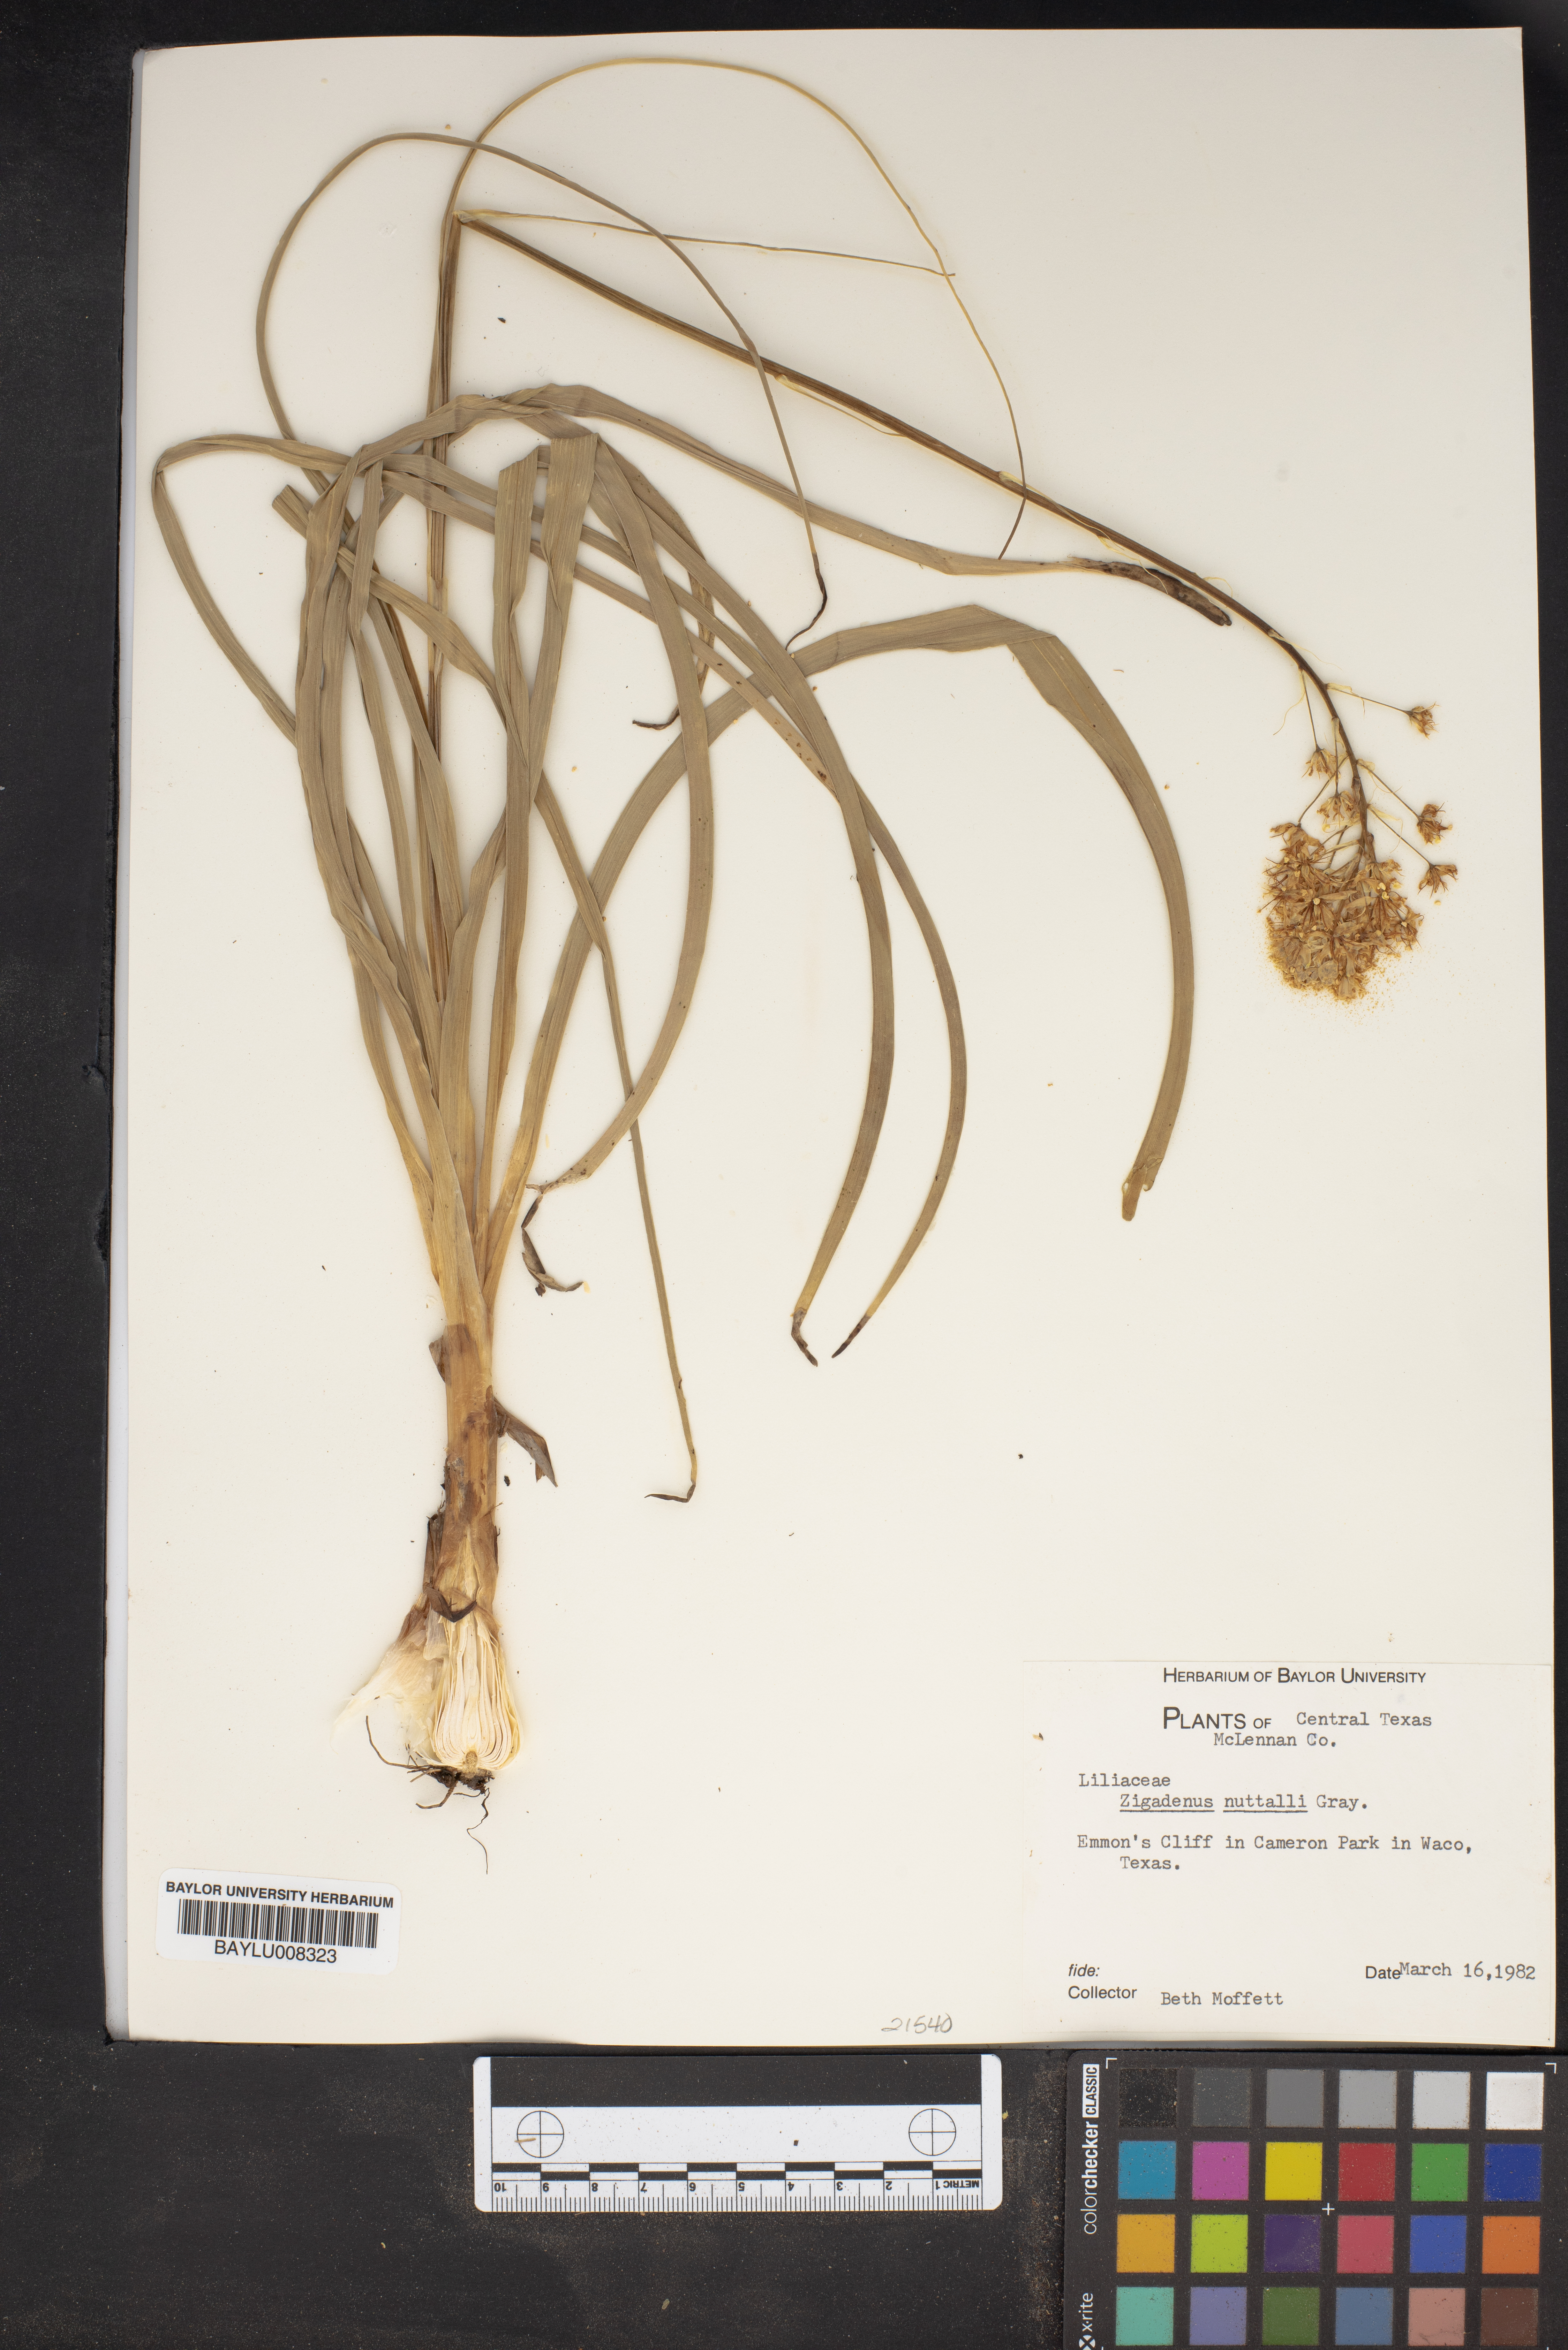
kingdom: Plantae
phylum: Tracheophyta
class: Liliopsida
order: Liliales
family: Melanthiaceae
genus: Toxicoscordion
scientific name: Toxicoscordion nuttallii
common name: Poison sego
